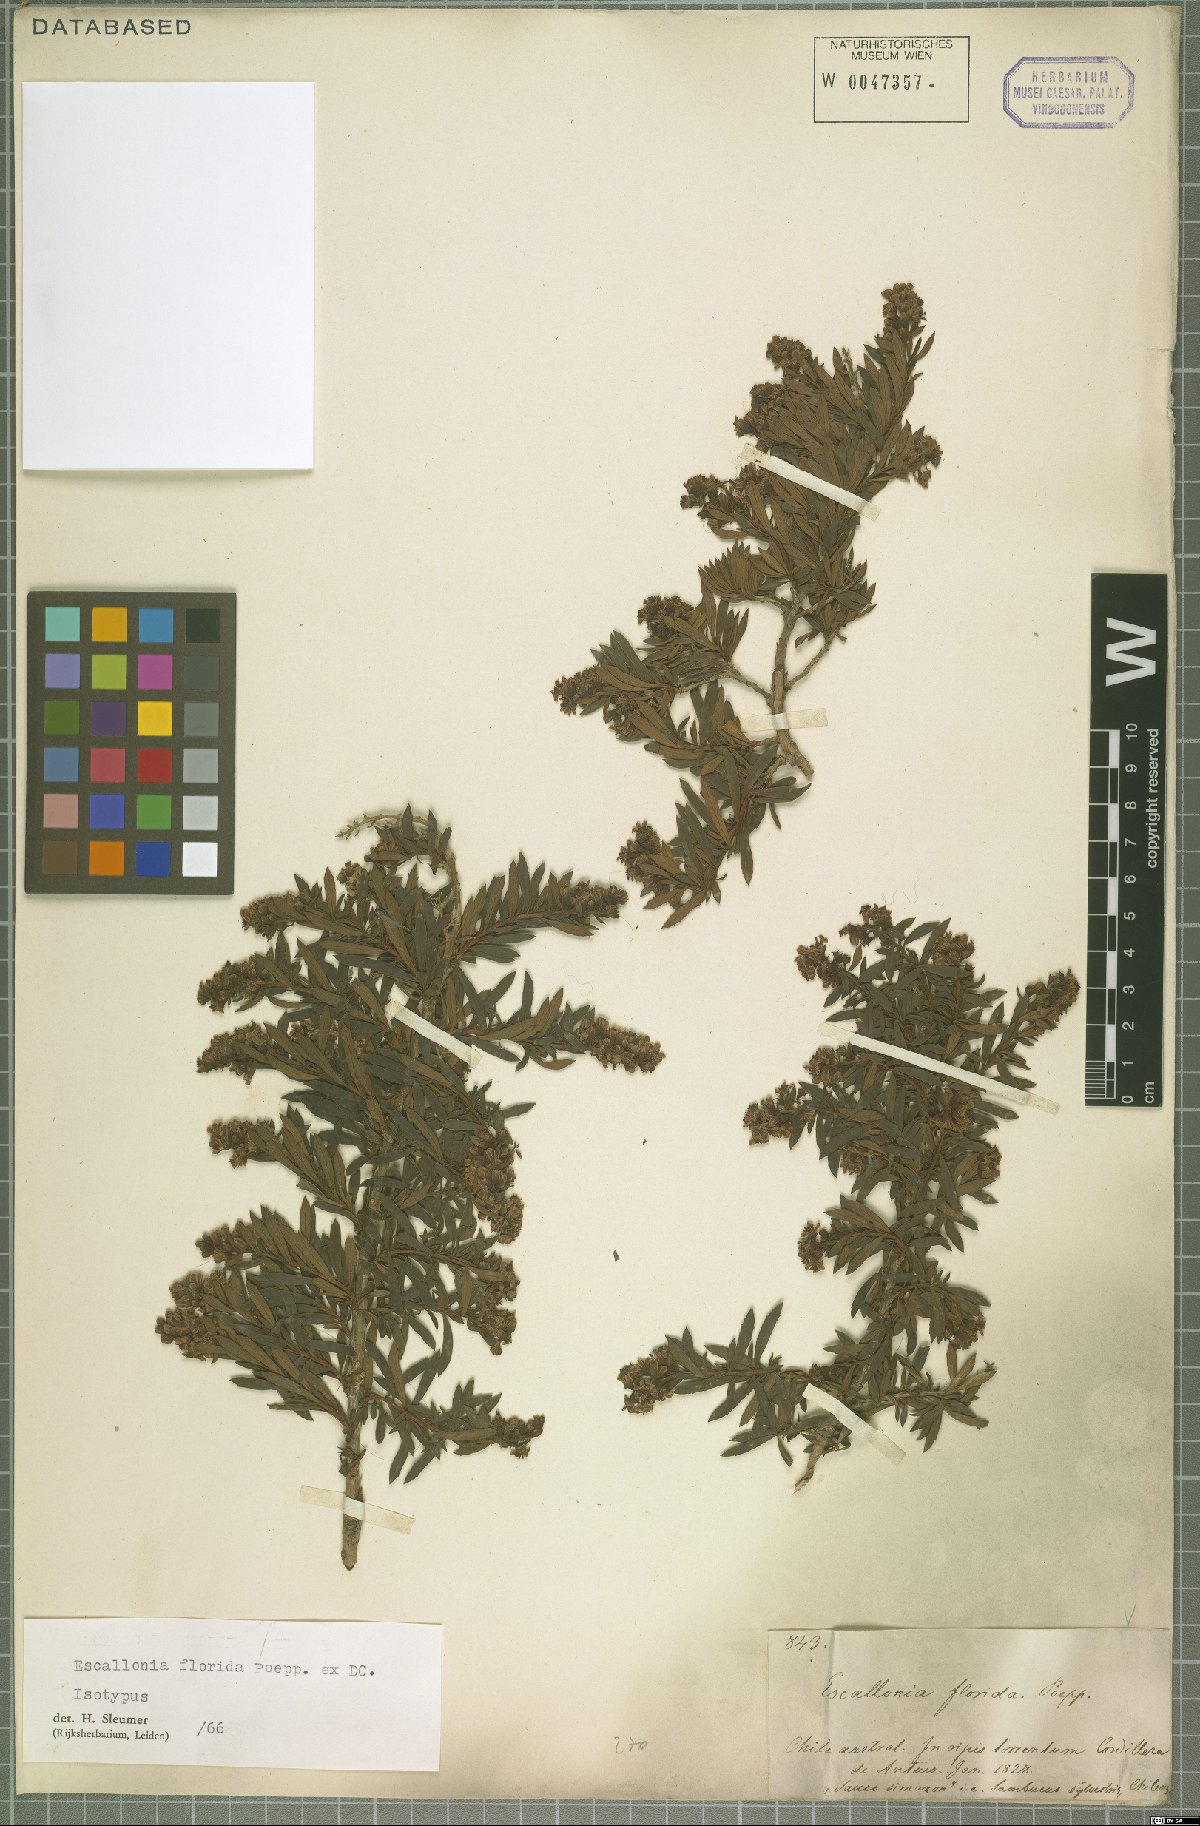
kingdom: Plantae
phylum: Tracheophyta
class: Magnoliopsida
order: Escalloniales
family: Escalloniaceae
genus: Escallonia
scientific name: Escallonia florida
